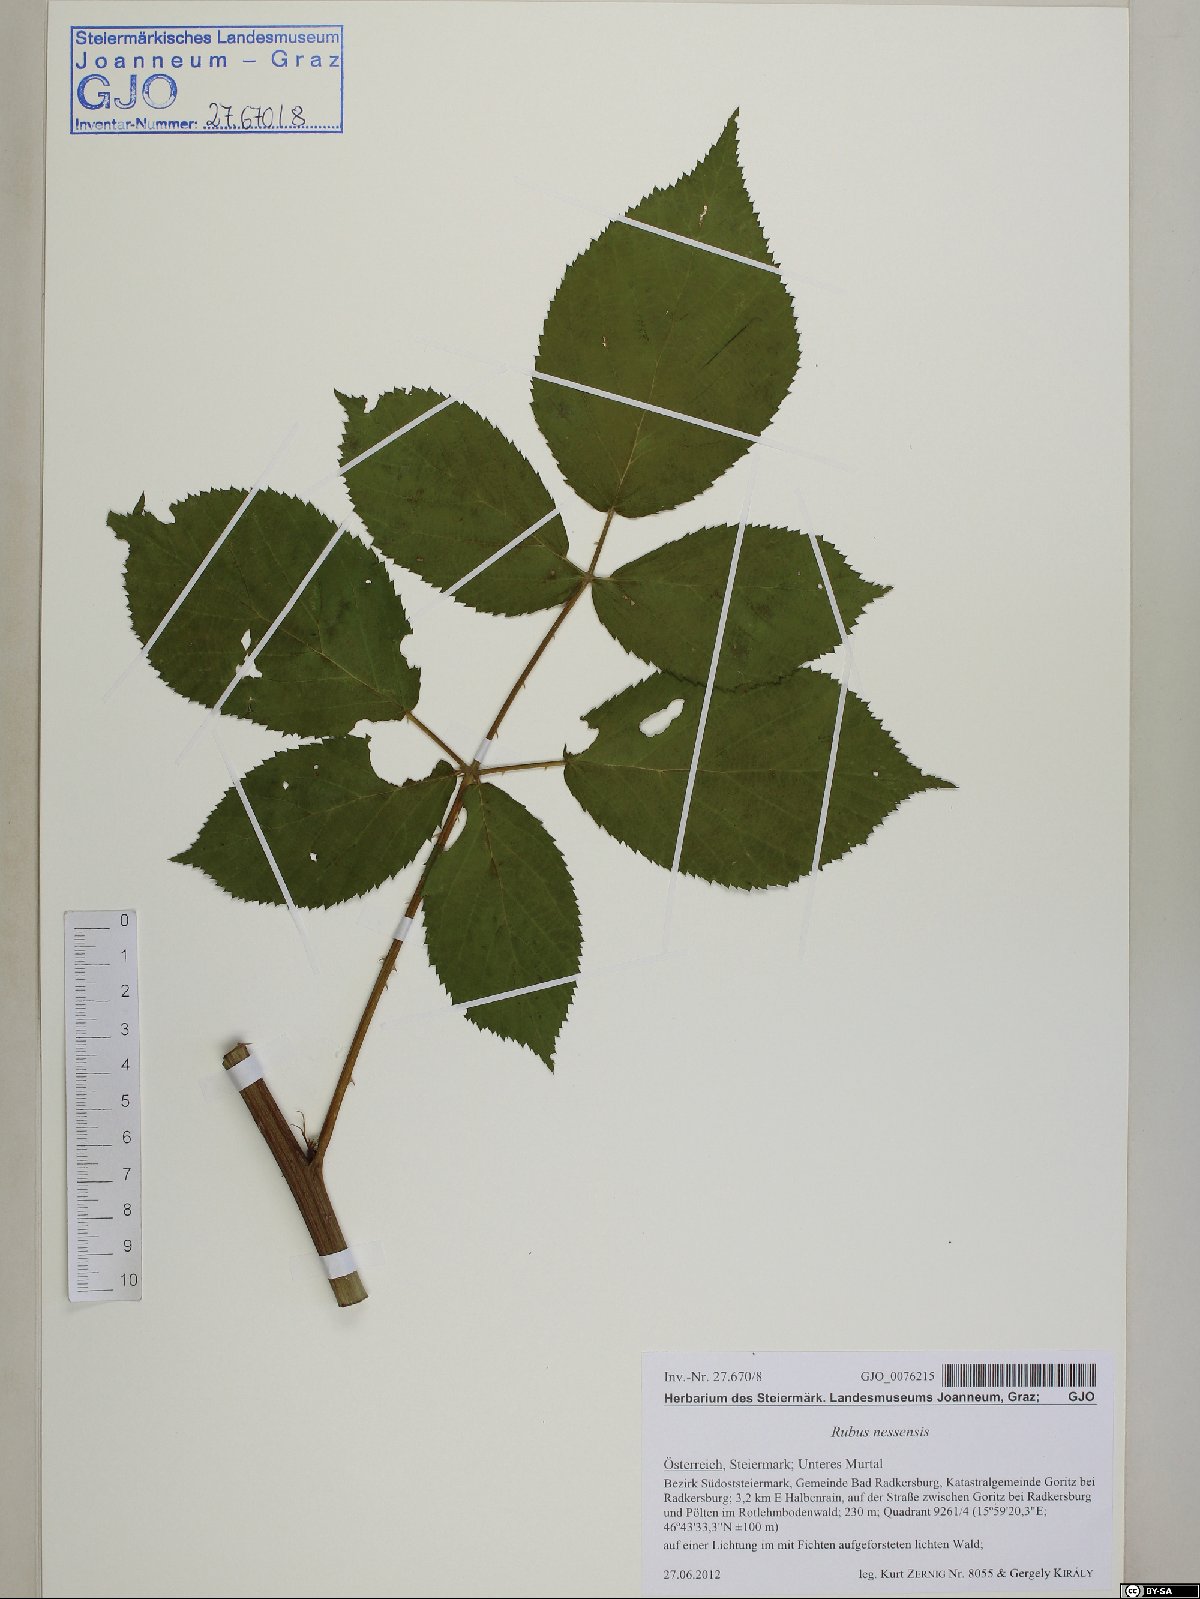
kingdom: Plantae
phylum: Tracheophyta
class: Magnoliopsida
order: Rosales
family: Rosaceae
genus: Rubus
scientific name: Rubus polonicus
